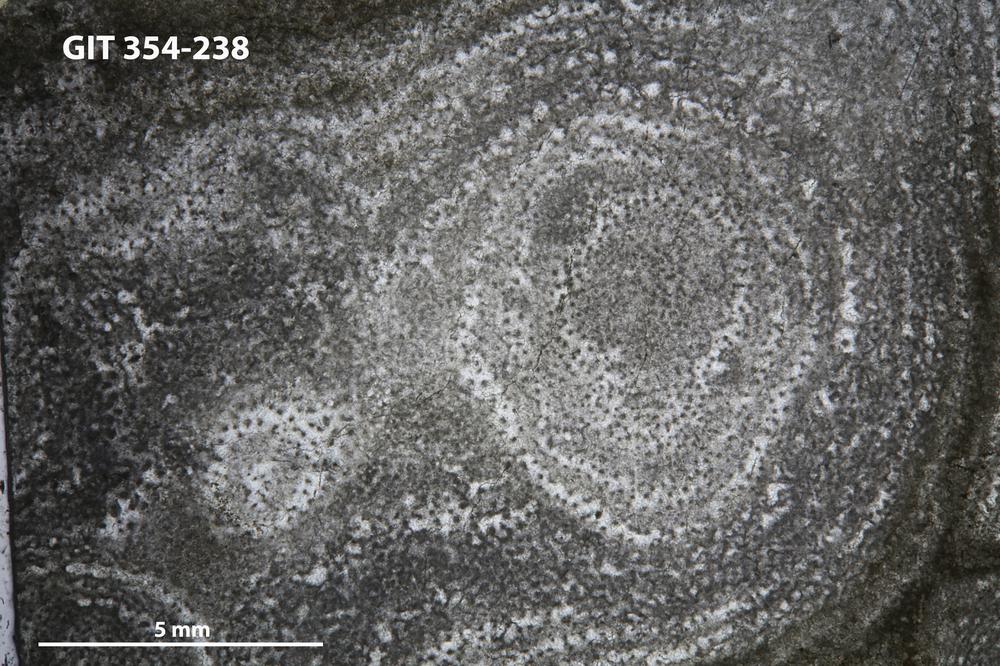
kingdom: Animalia
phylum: Porifera
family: Clathrodictyidae
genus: Clathrodictyon
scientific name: Clathrodictyon boreale
